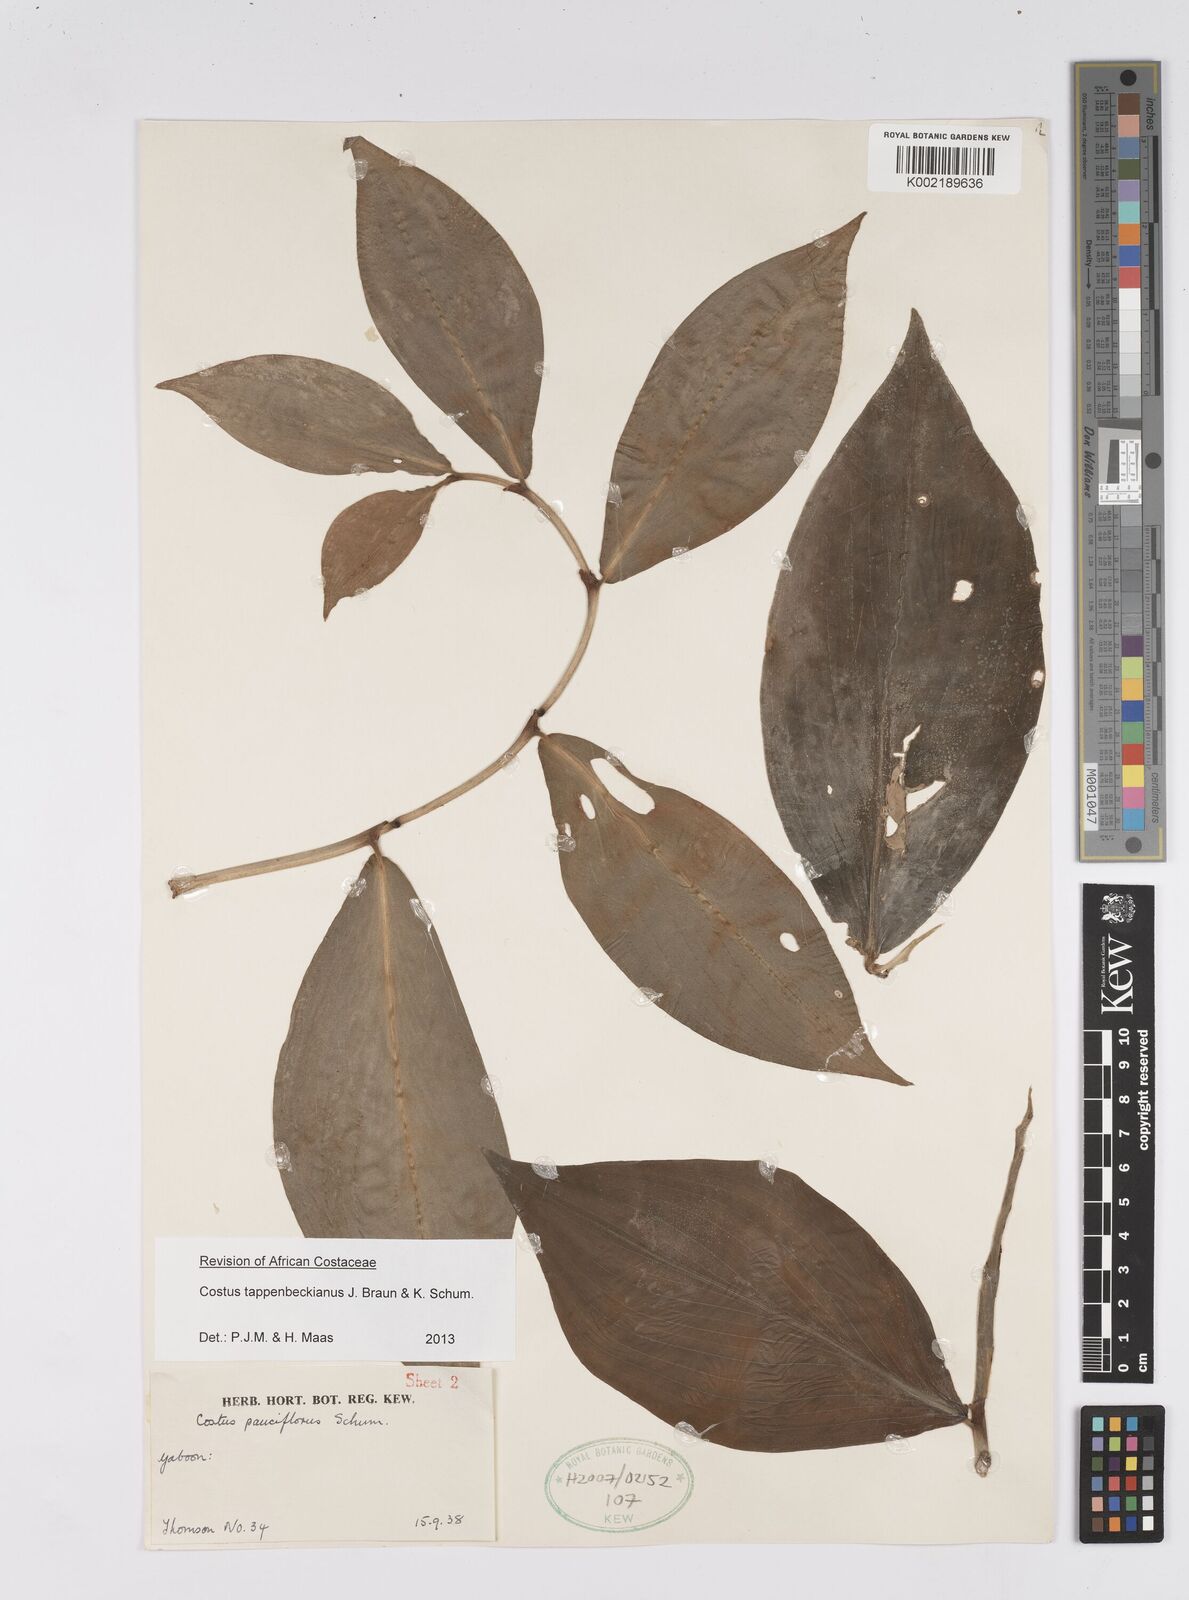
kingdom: Plantae
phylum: Tracheophyta
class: Liliopsida
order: Zingiberales
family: Costaceae
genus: Costus
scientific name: Costus tappenbeckianus
